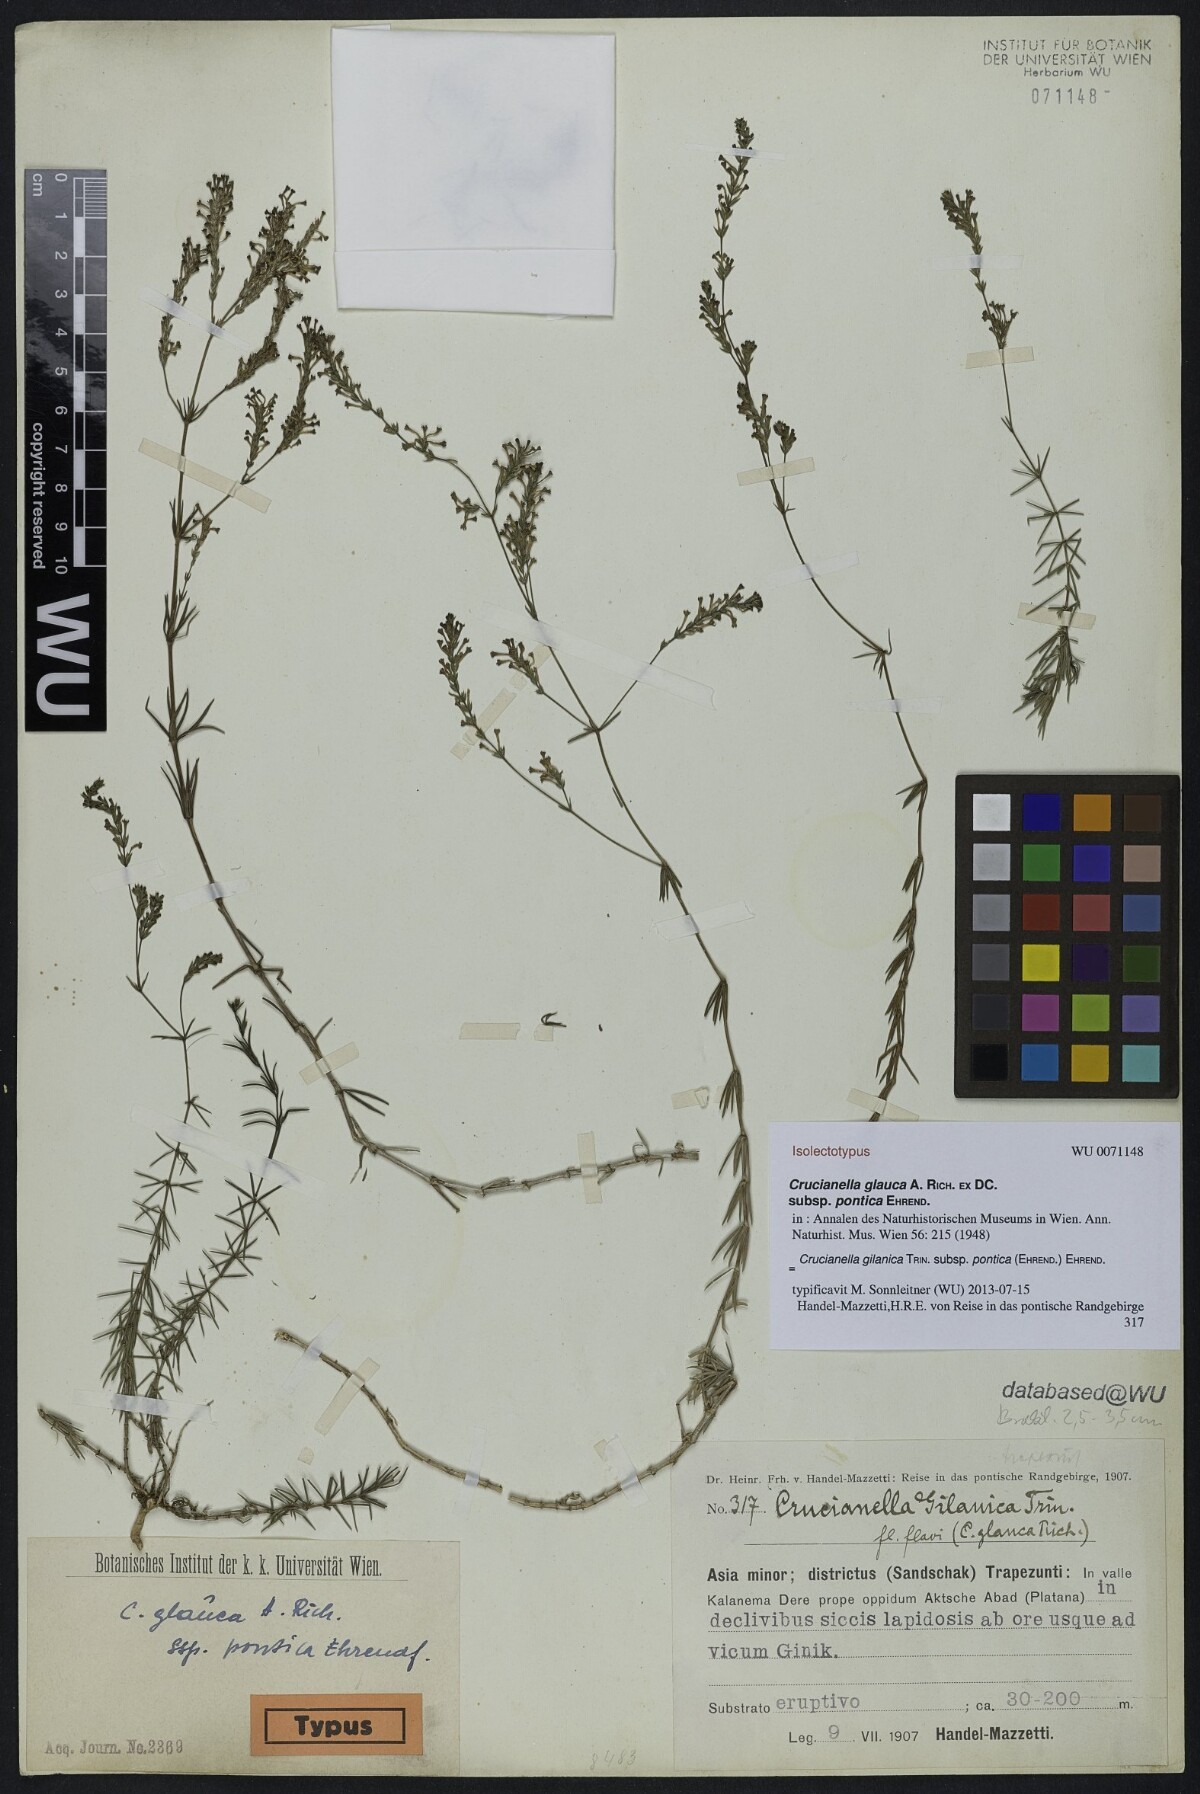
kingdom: Plantae
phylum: Tracheophyta
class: Magnoliopsida
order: Gentianales
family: Rubiaceae
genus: Crucianella
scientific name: Crucianella gilanica
